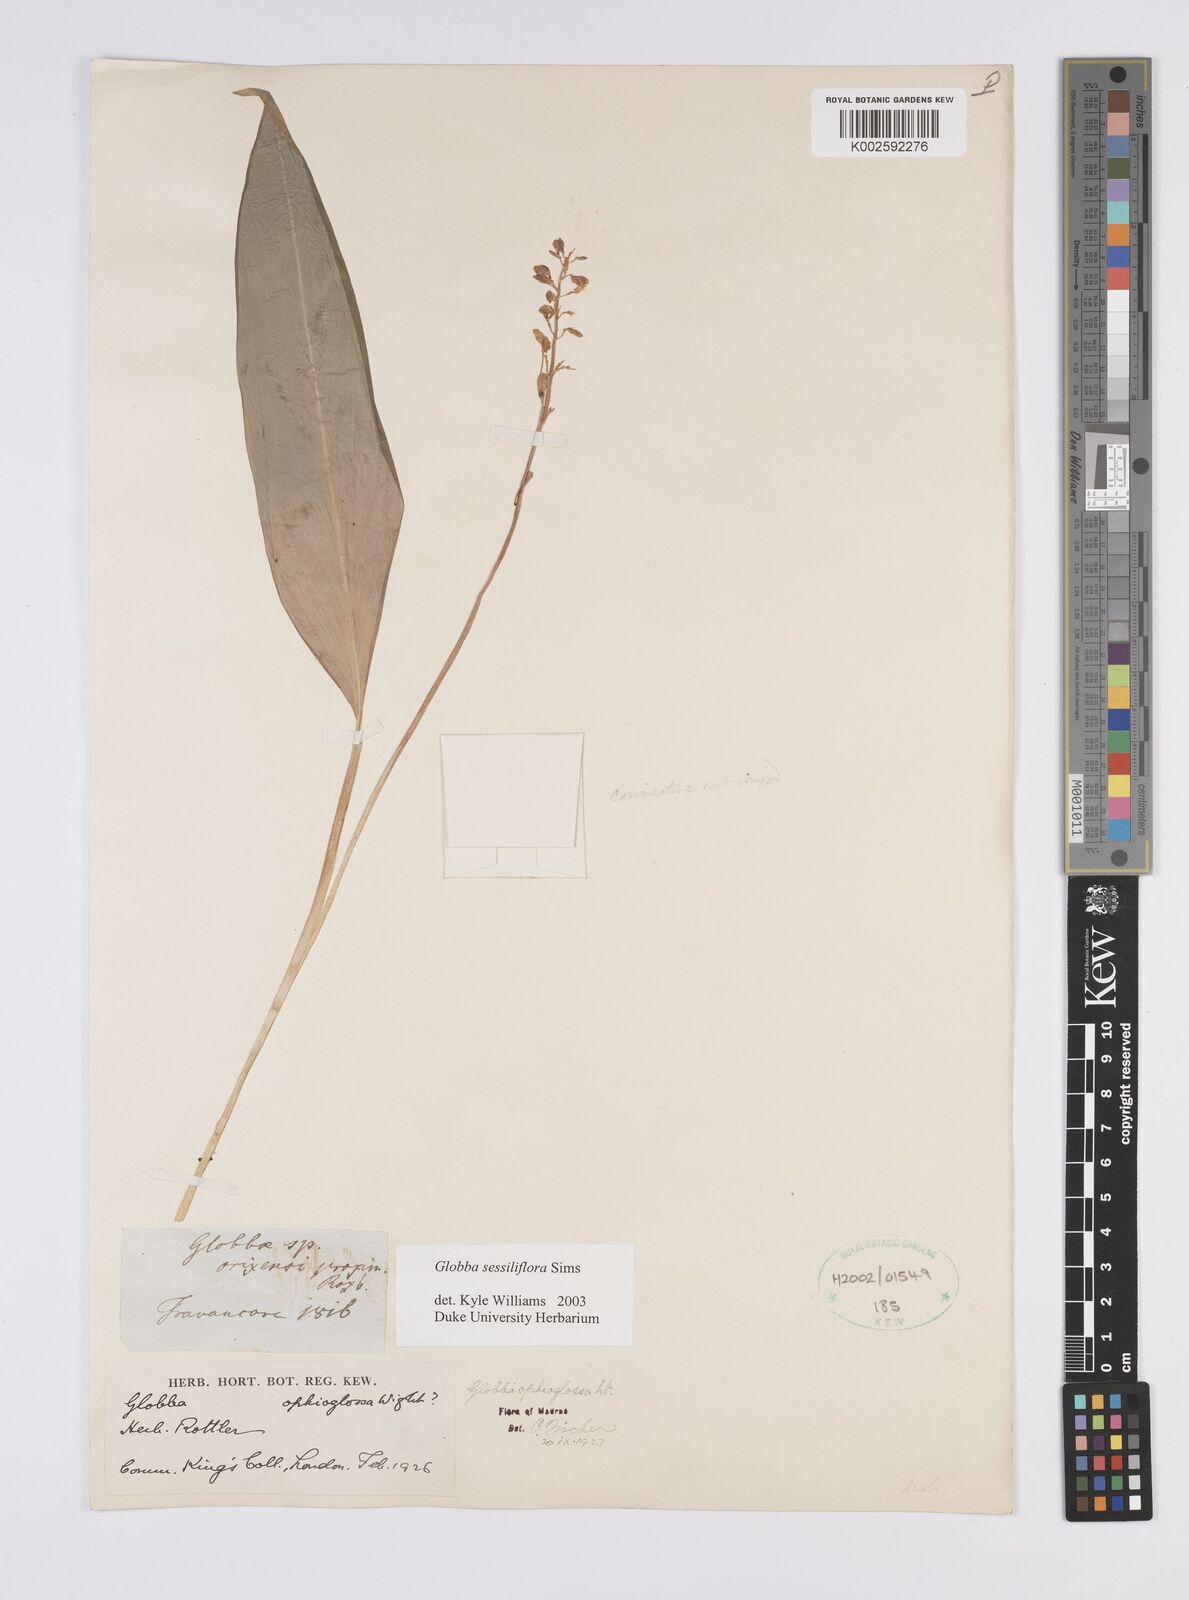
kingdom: Plantae
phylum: Tracheophyta
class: Liliopsida
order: Zingiberales
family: Zingiberaceae
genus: Globba
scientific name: Globba sessiliflora
